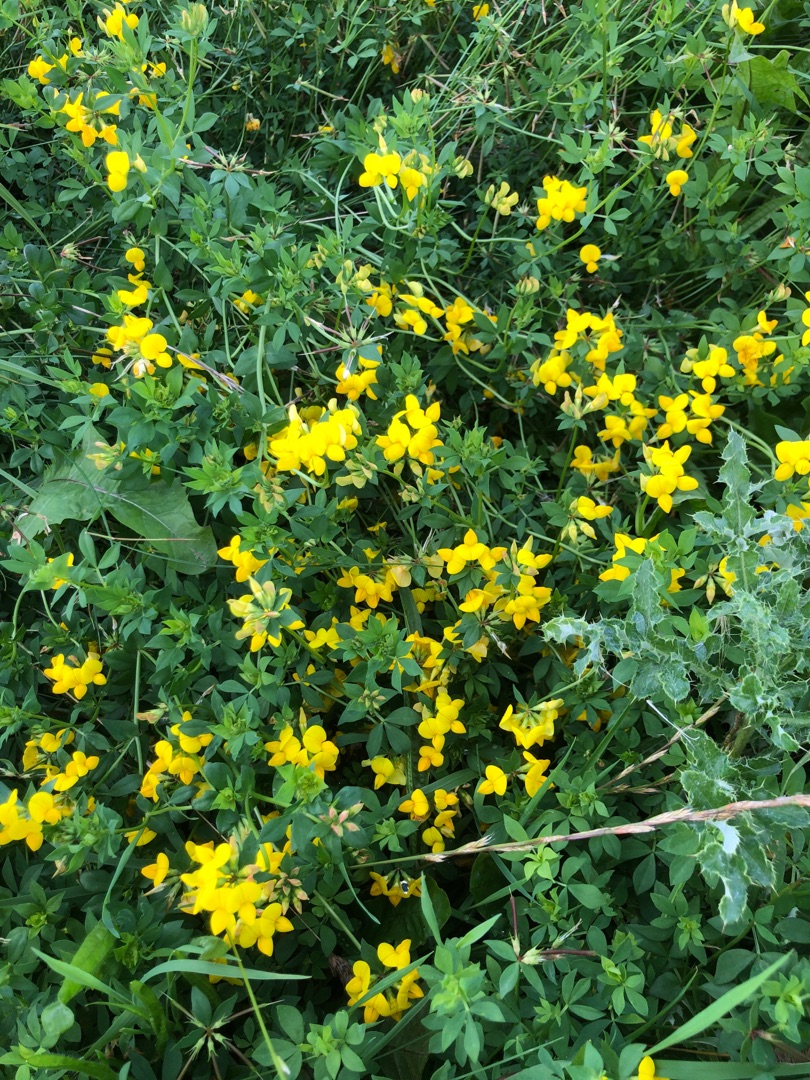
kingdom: Plantae
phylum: Tracheophyta
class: Magnoliopsida
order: Fabales
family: Fabaceae
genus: Lotus
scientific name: Lotus corniculatus
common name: Almindelig kællingetand
